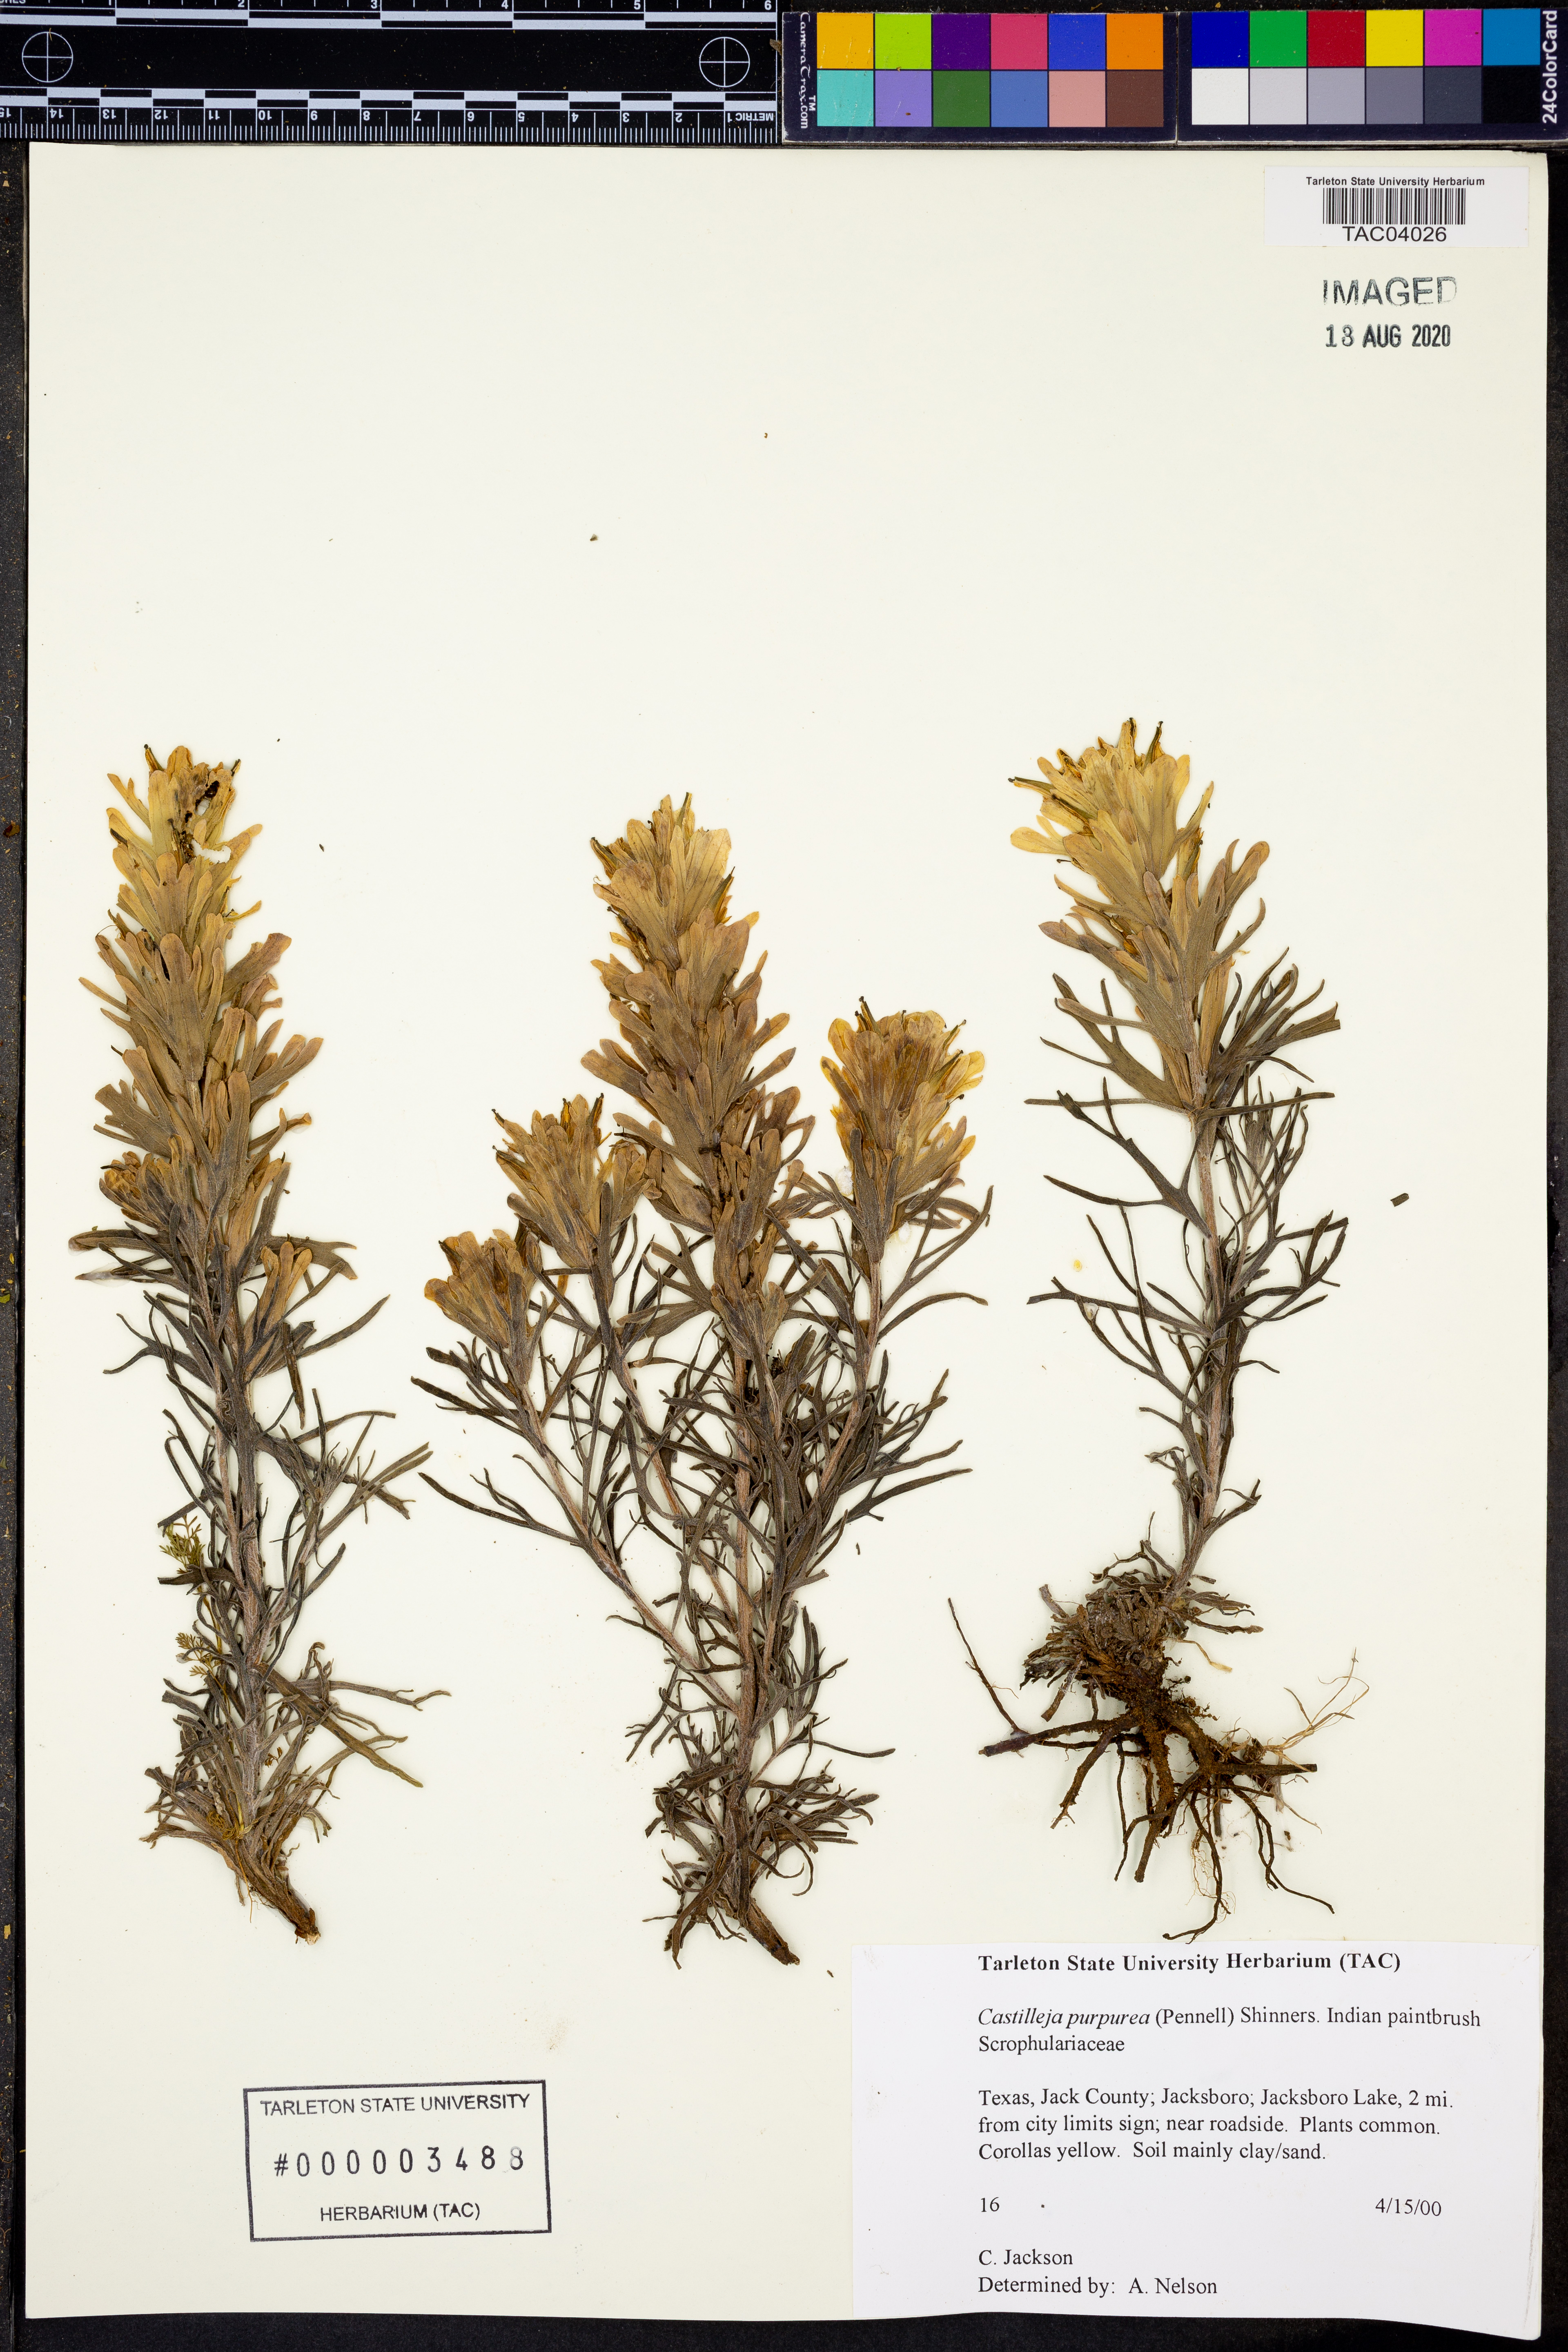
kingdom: Plantae
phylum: Tracheophyta
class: Magnoliopsida
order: Lamiales
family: Orobanchaceae
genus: Castilleja
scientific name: Castilleja purpurea
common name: Plains paintbrush
